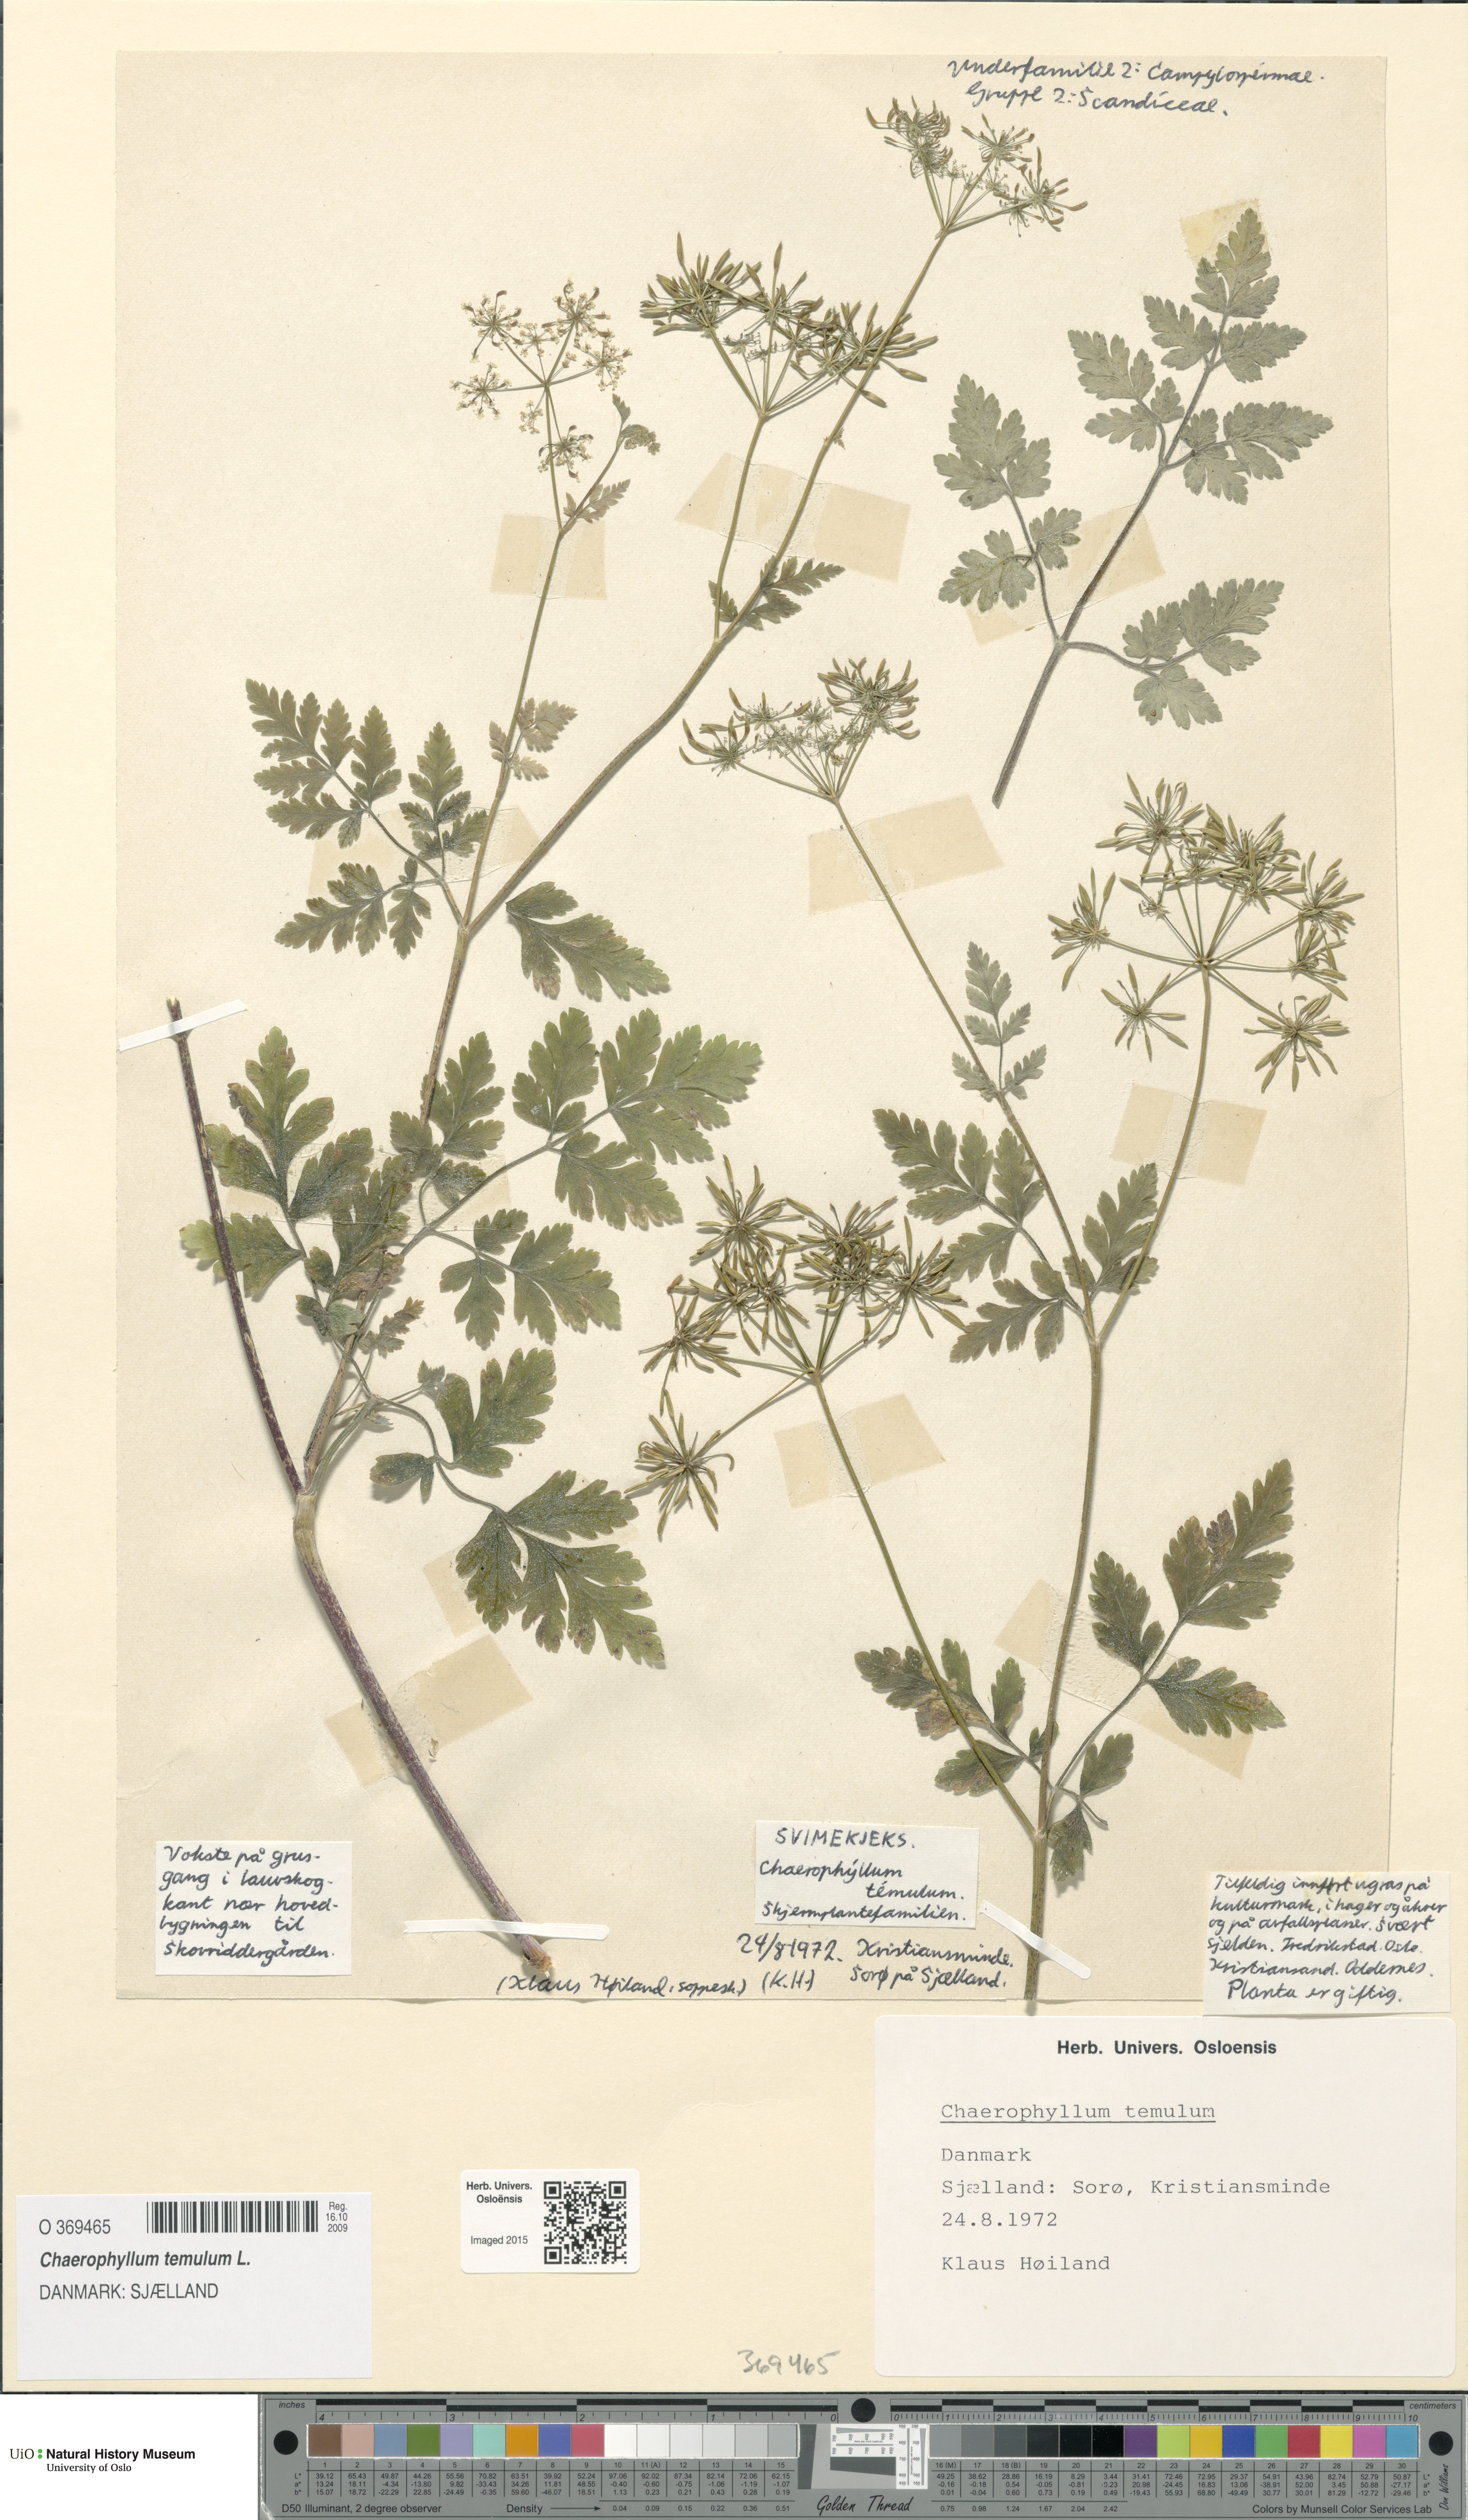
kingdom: Plantae
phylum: Tracheophyta
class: Magnoliopsida
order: Apiales
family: Apiaceae
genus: Chaerophyllum
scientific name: Chaerophyllum temulum
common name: Rough chervil
